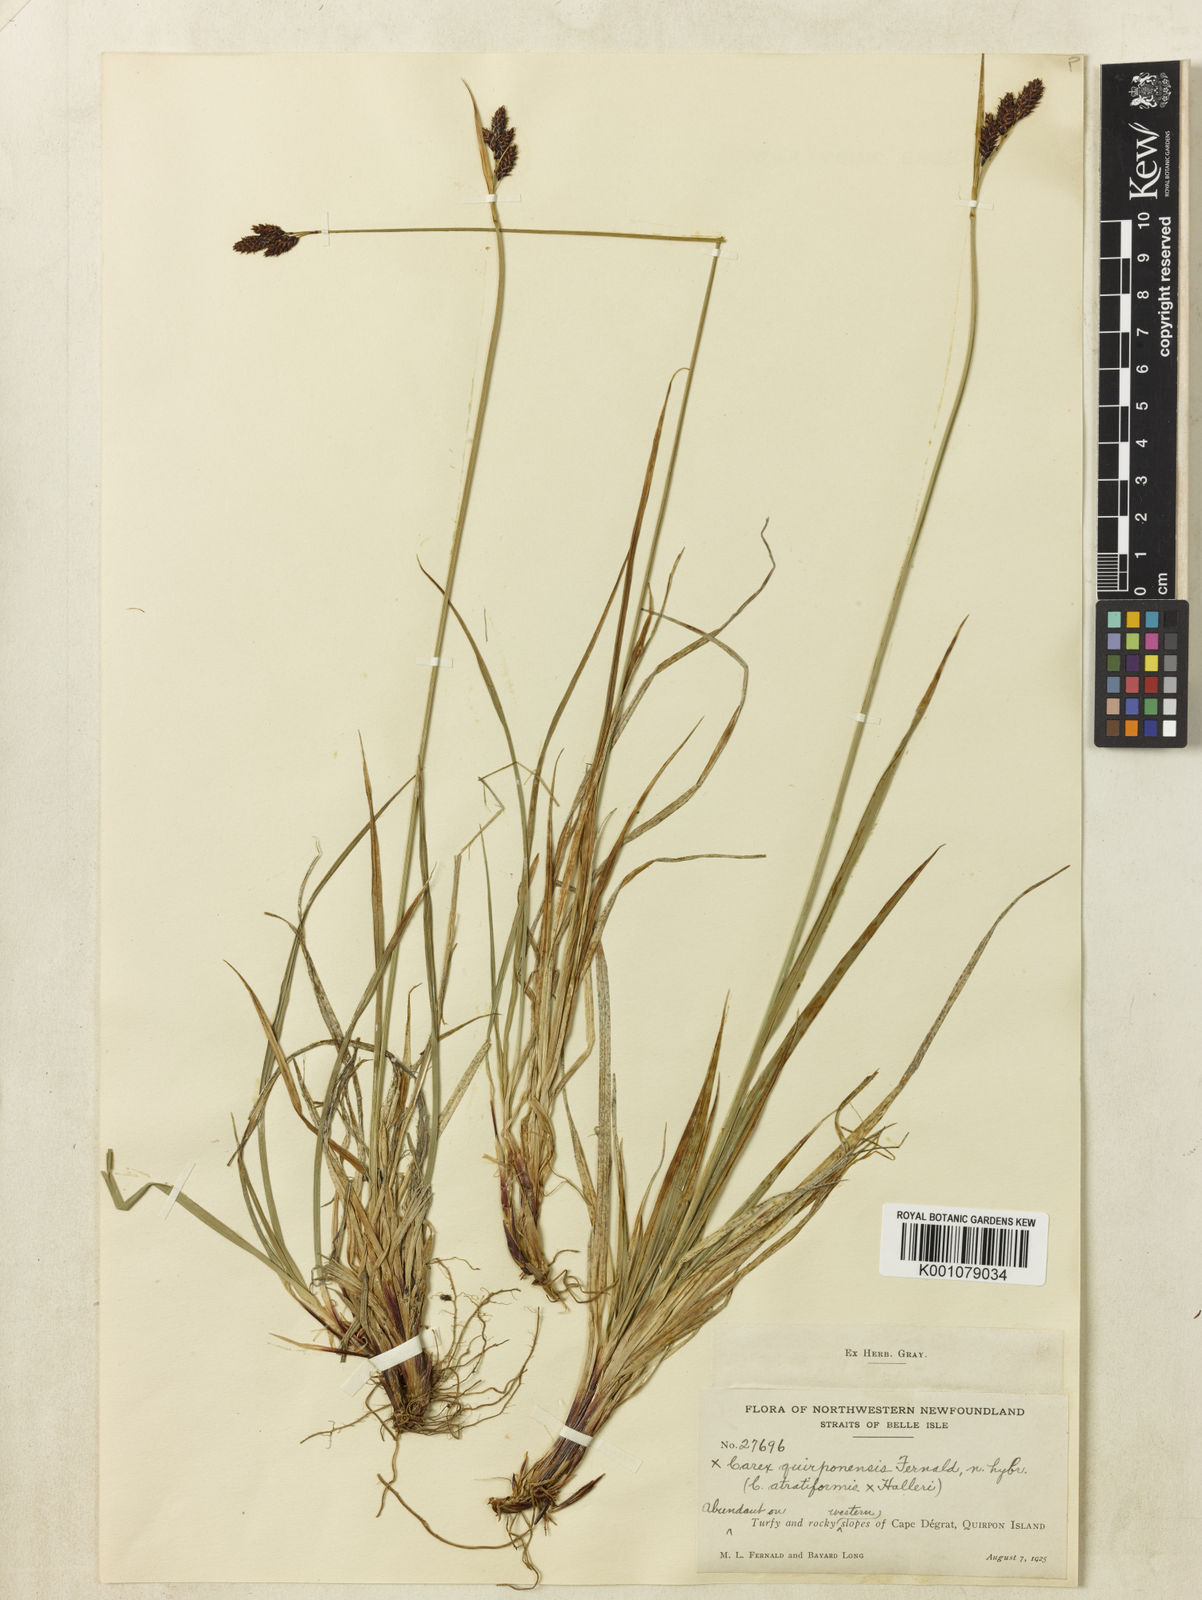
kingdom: Plantae
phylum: Tracheophyta
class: Liliopsida
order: Poales
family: Cyperaceae
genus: Carex
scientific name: Carex atratiformis
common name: Black sedge
